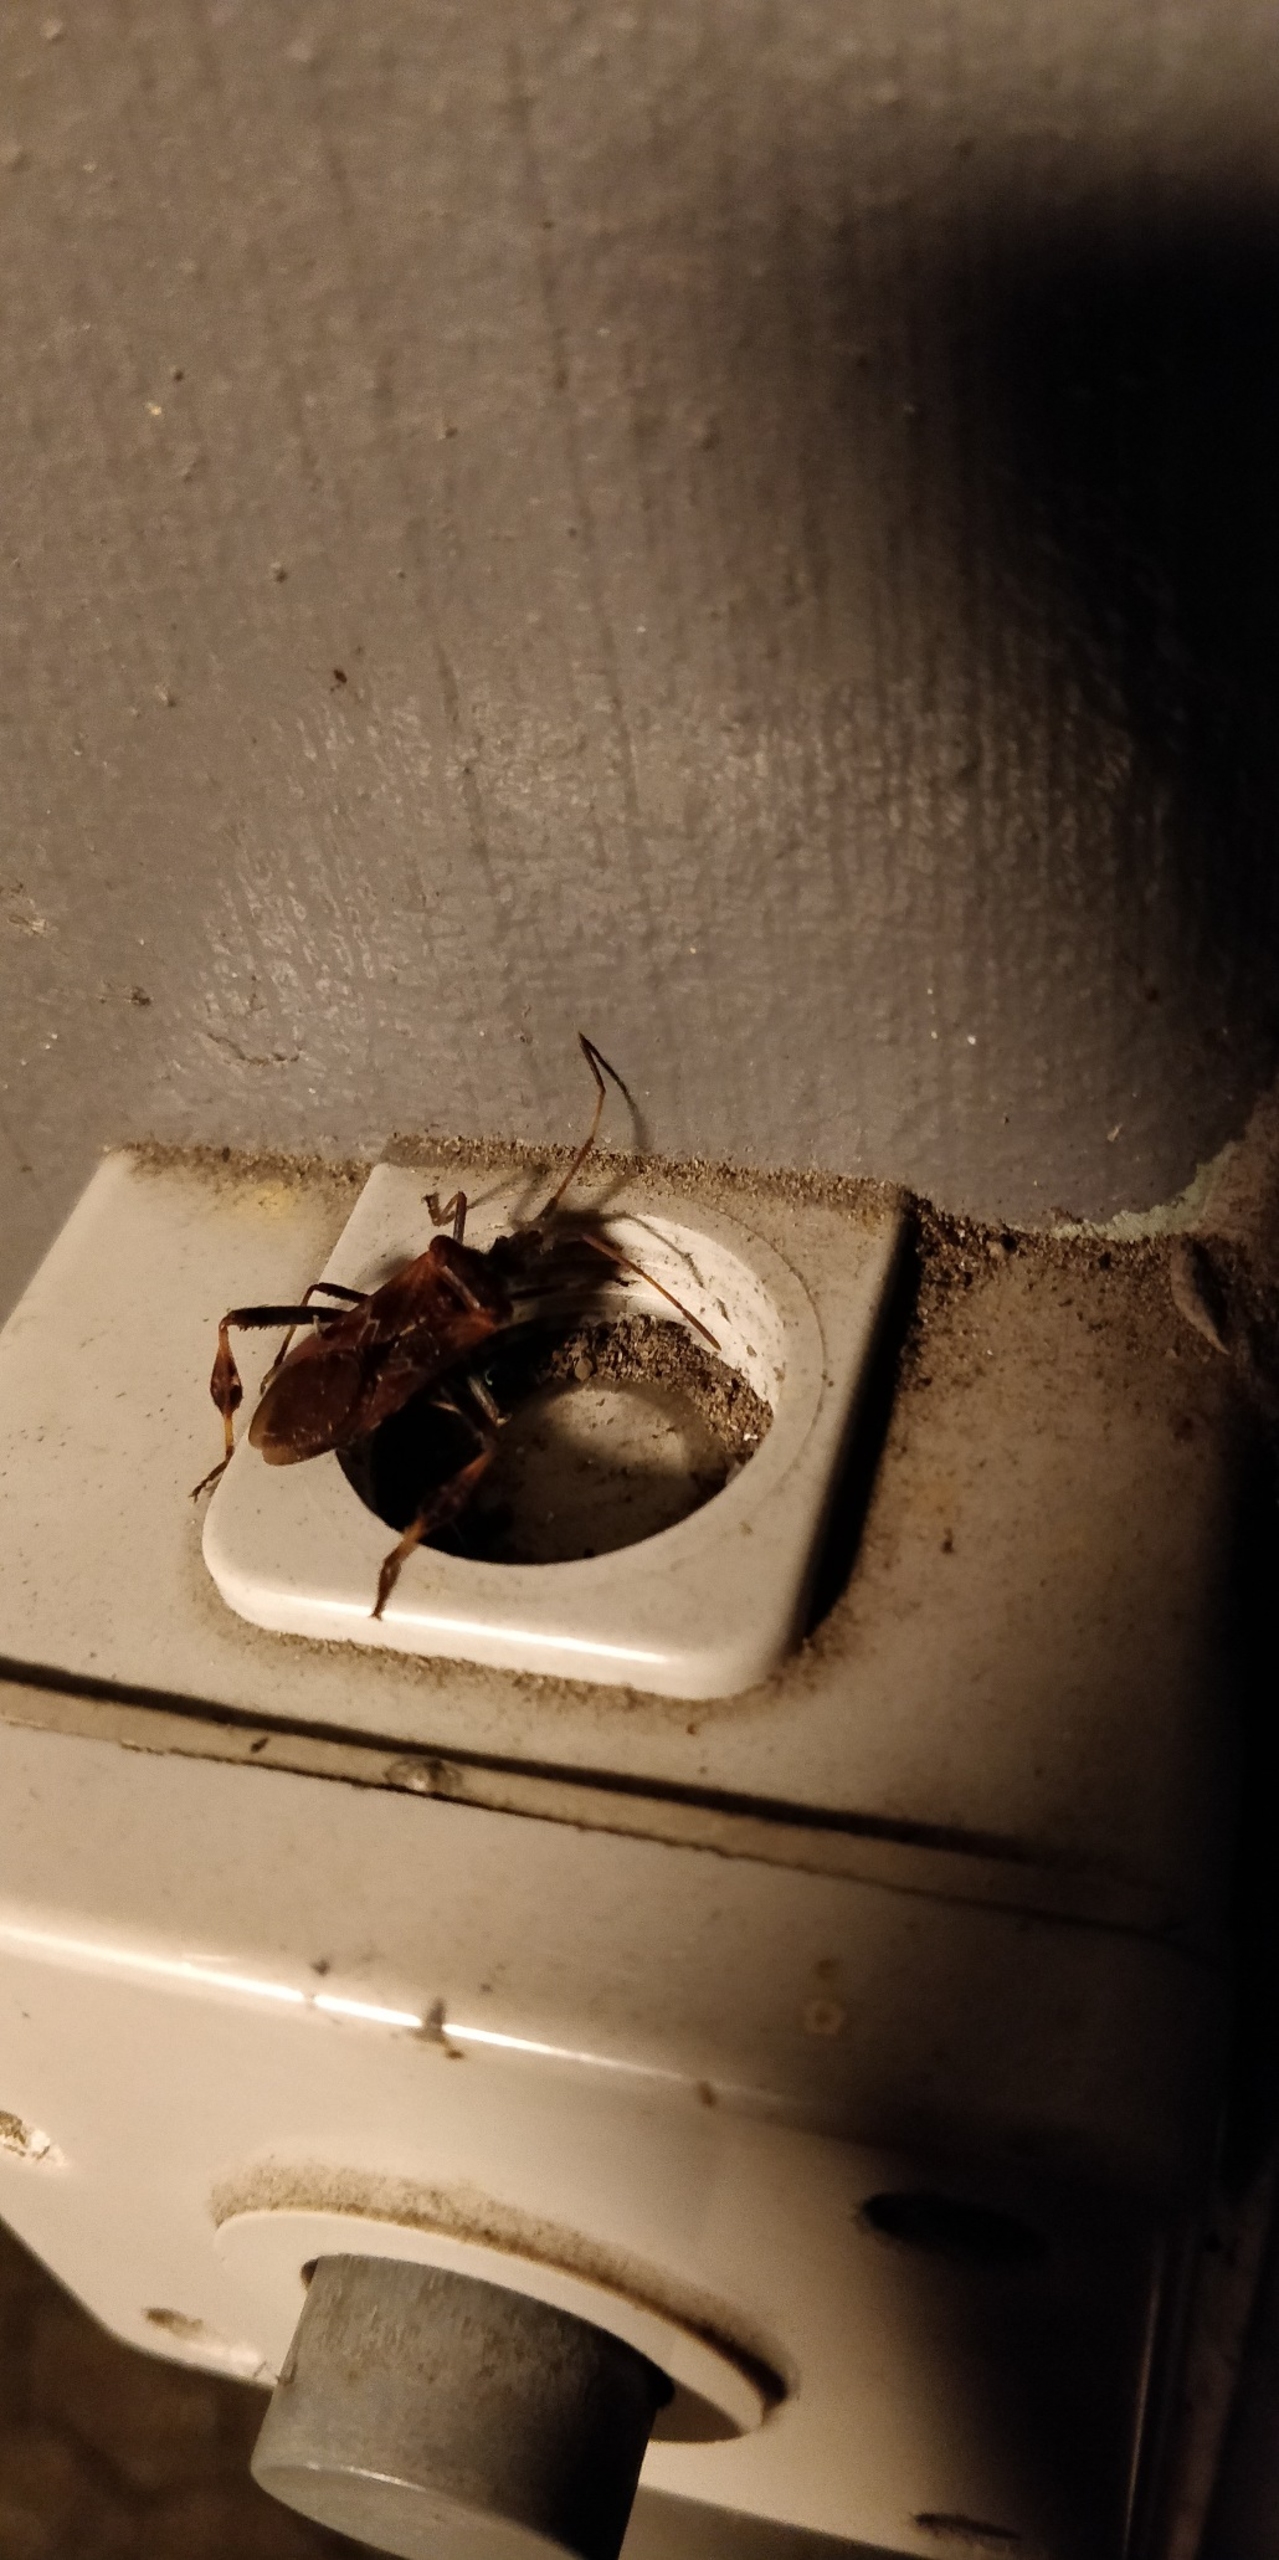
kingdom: Animalia
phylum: Arthropoda
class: Insecta
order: Hemiptera
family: Coreidae
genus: Leptoglossus
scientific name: Leptoglossus occidentalis
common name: Amerikansk fyrretæge
